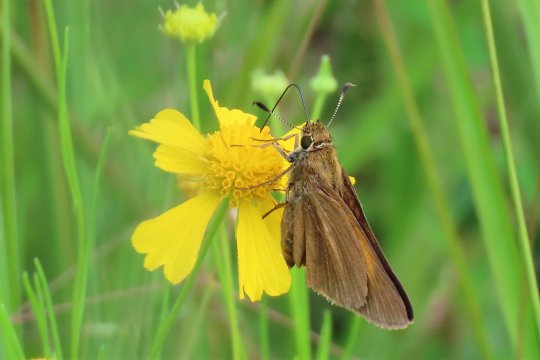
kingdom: Animalia
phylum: Arthropoda
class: Insecta
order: Lepidoptera
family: Hesperiidae
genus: Poanes
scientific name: Poanes aaroni
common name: Aaron's Skipper
